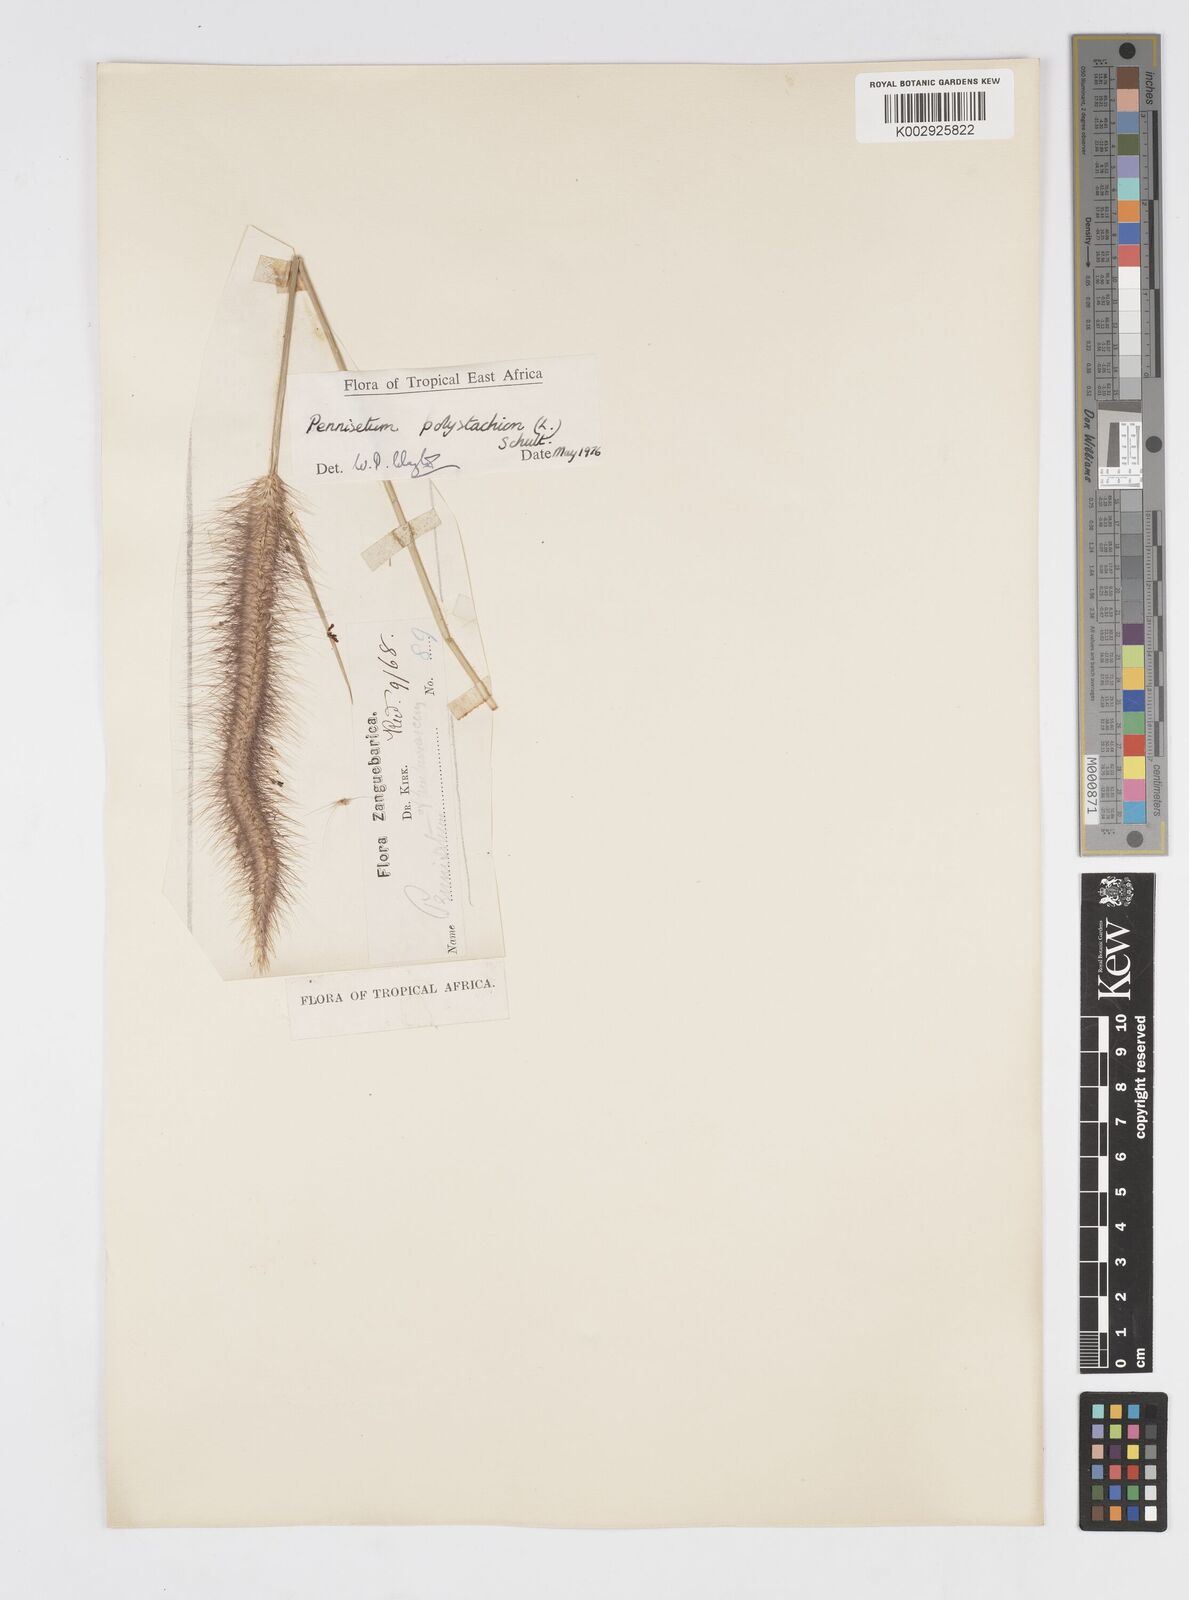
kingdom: Plantae
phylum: Tracheophyta
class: Liliopsida
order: Poales
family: Poaceae
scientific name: Poaceae
